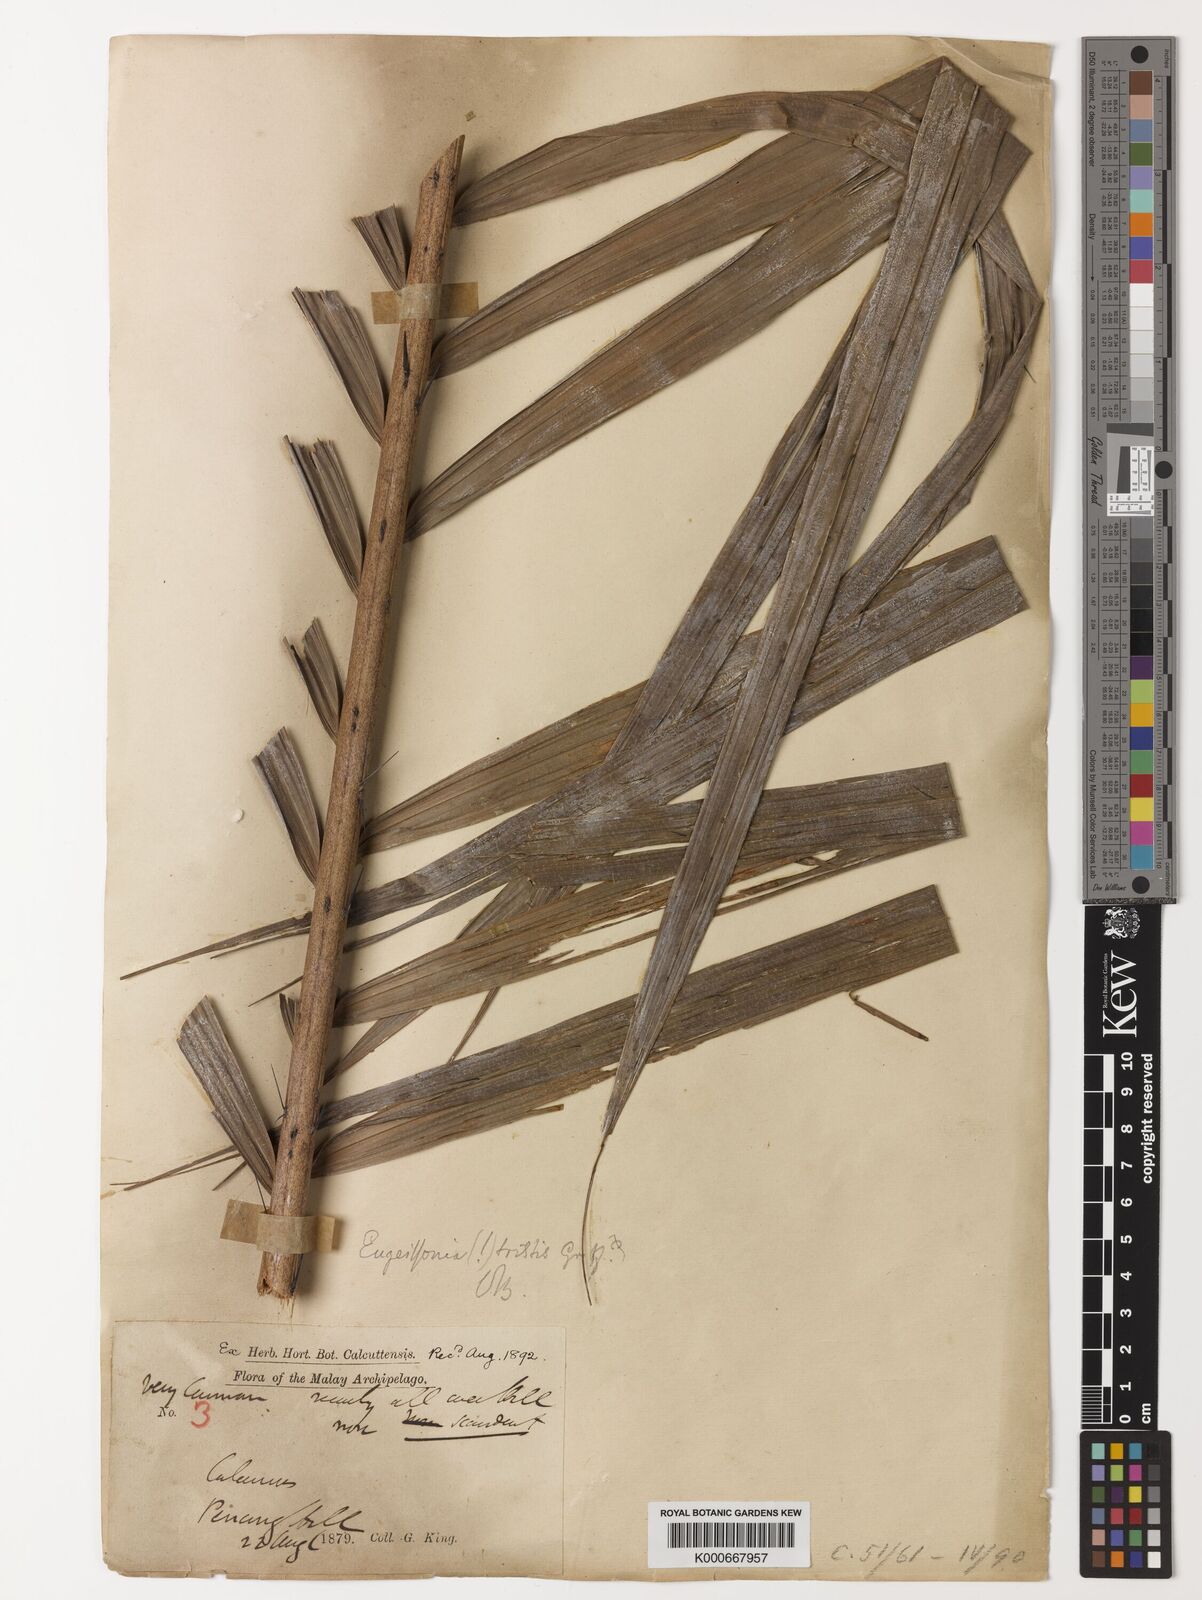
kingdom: Plantae
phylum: Tracheophyta
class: Liliopsida
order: Arecales
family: Arecaceae
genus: Eugeissona
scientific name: Eugeissona tristis
